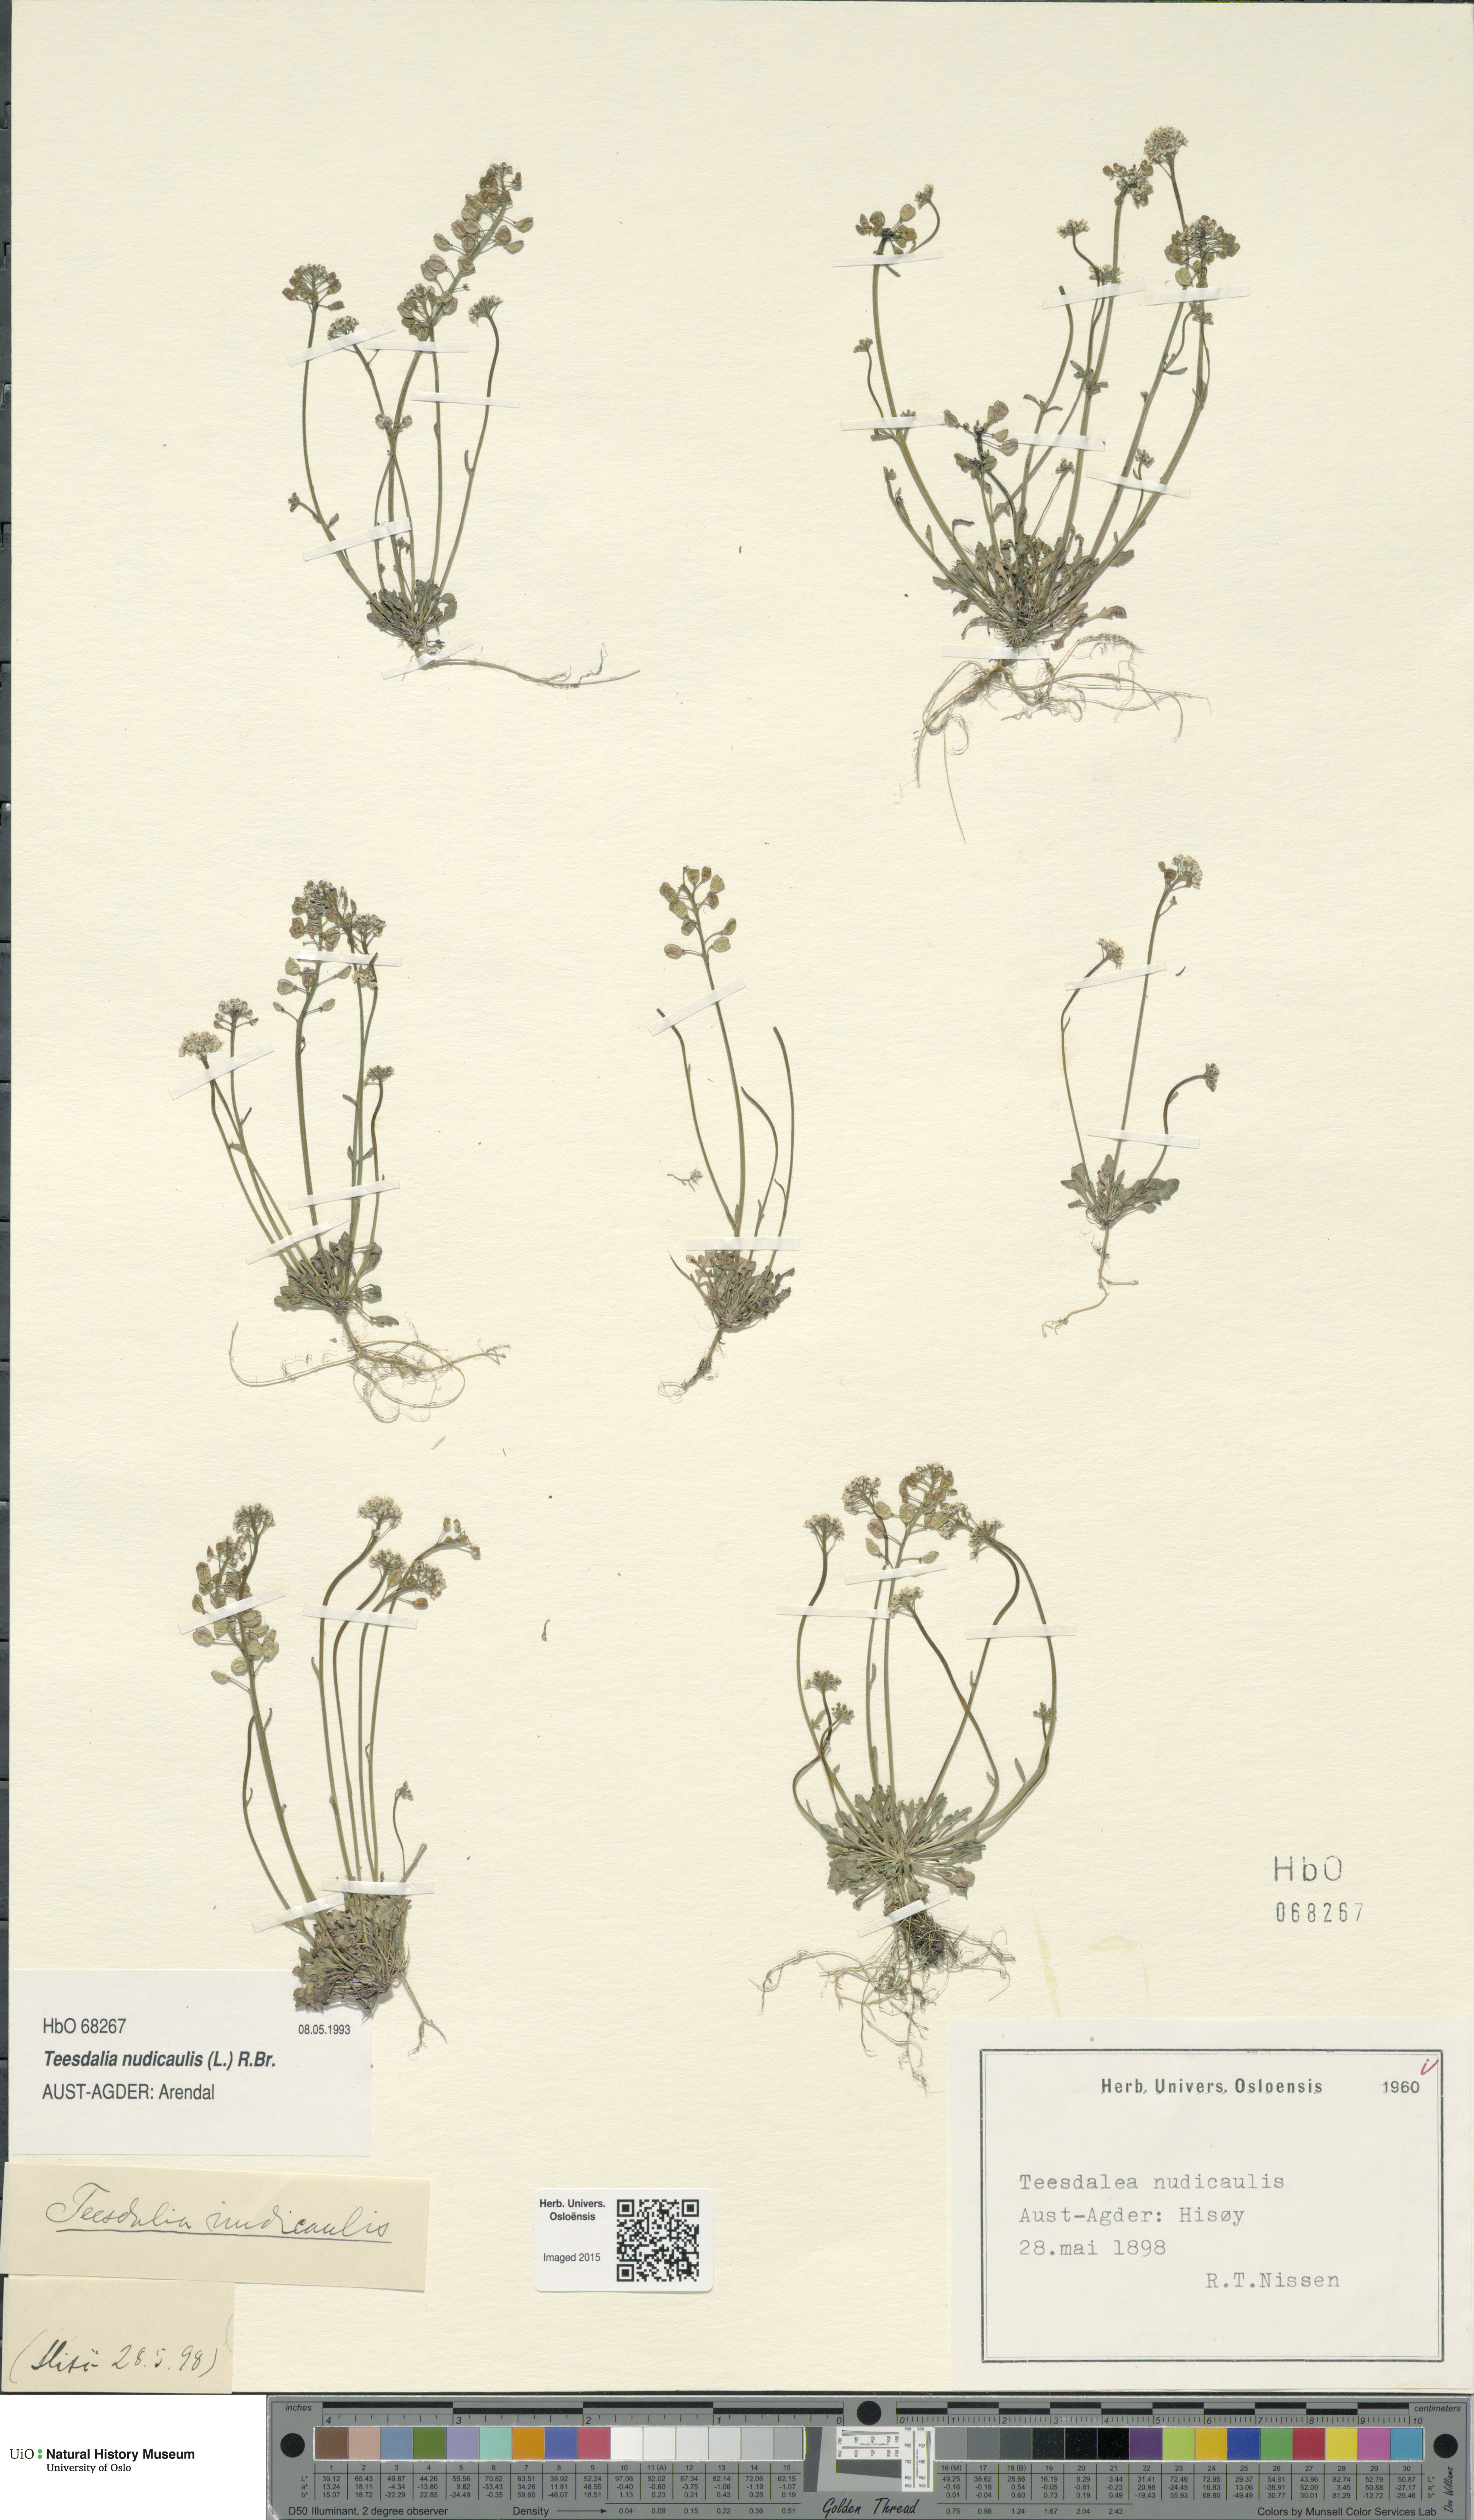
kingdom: Plantae
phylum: Tracheophyta
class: Magnoliopsida
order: Brassicales
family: Brassicaceae
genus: Teesdalia
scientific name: Teesdalia nudicaulis
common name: Shepherd's cress
